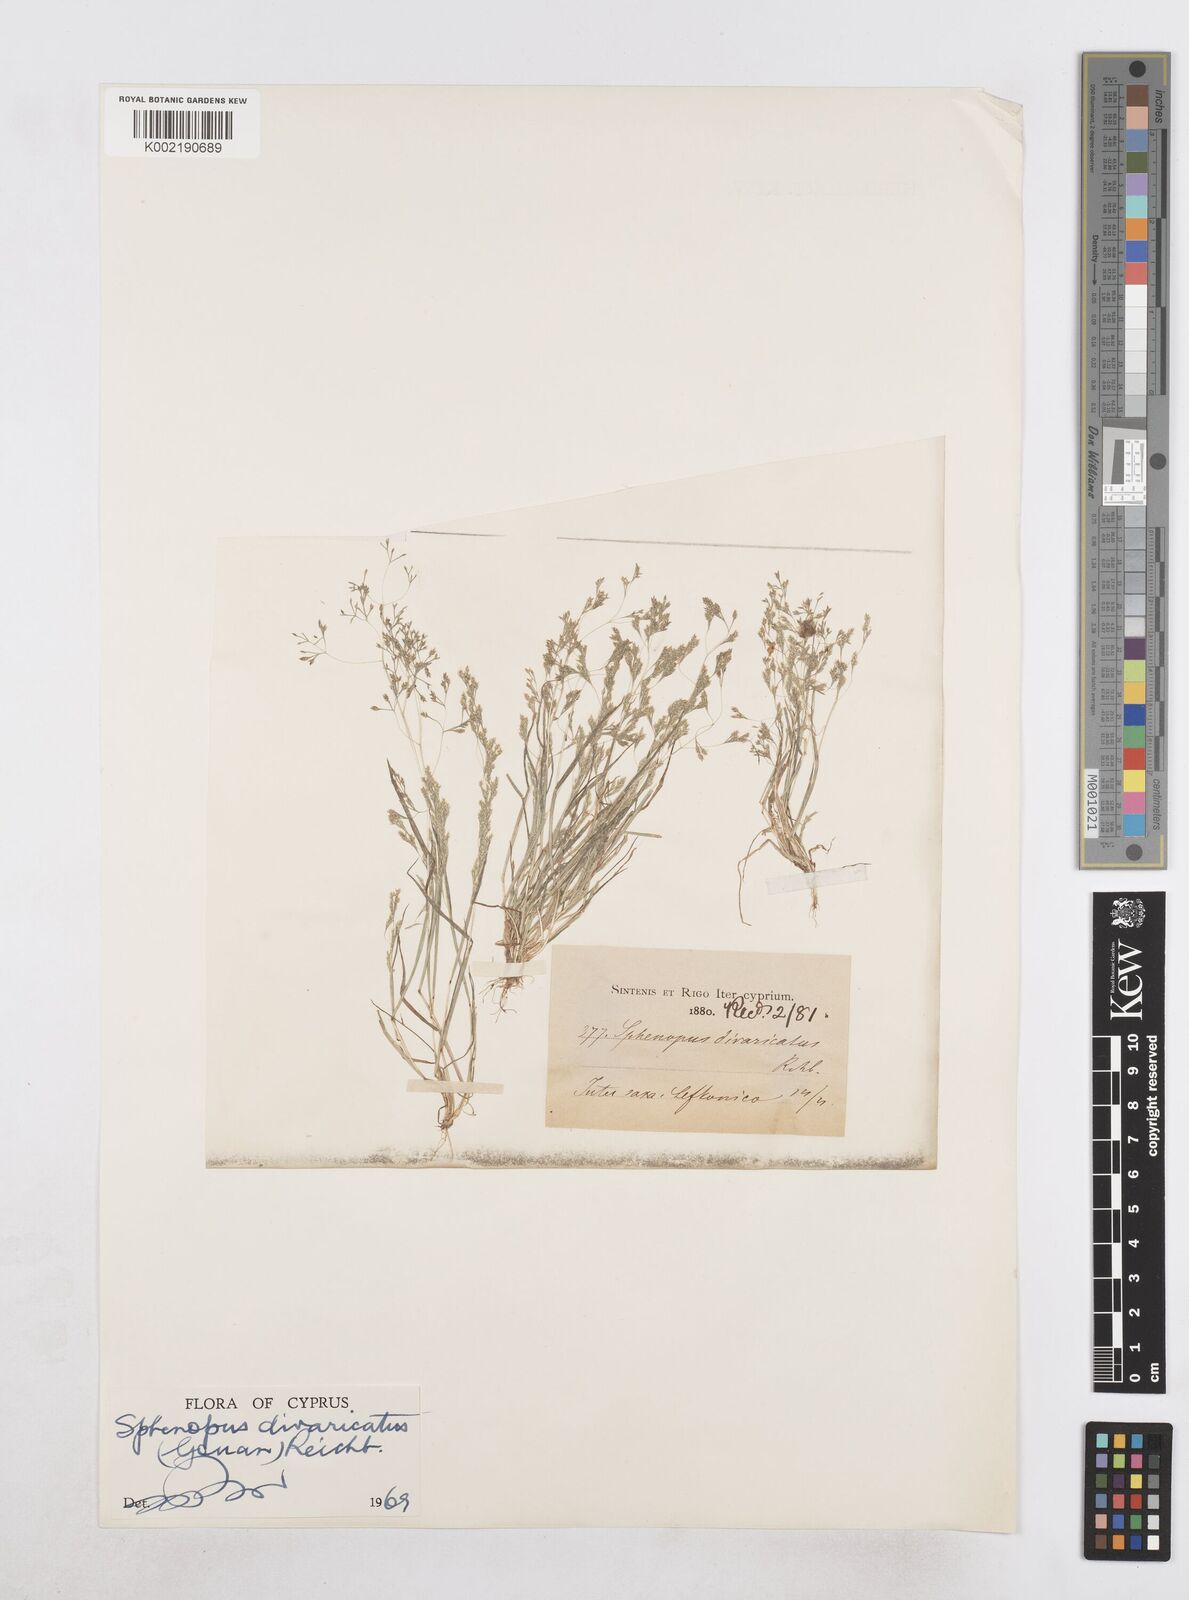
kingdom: Plantae
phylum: Tracheophyta
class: Liliopsida
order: Poales
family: Poaceae
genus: Sphenopus
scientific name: Sphenopus divaricatus
